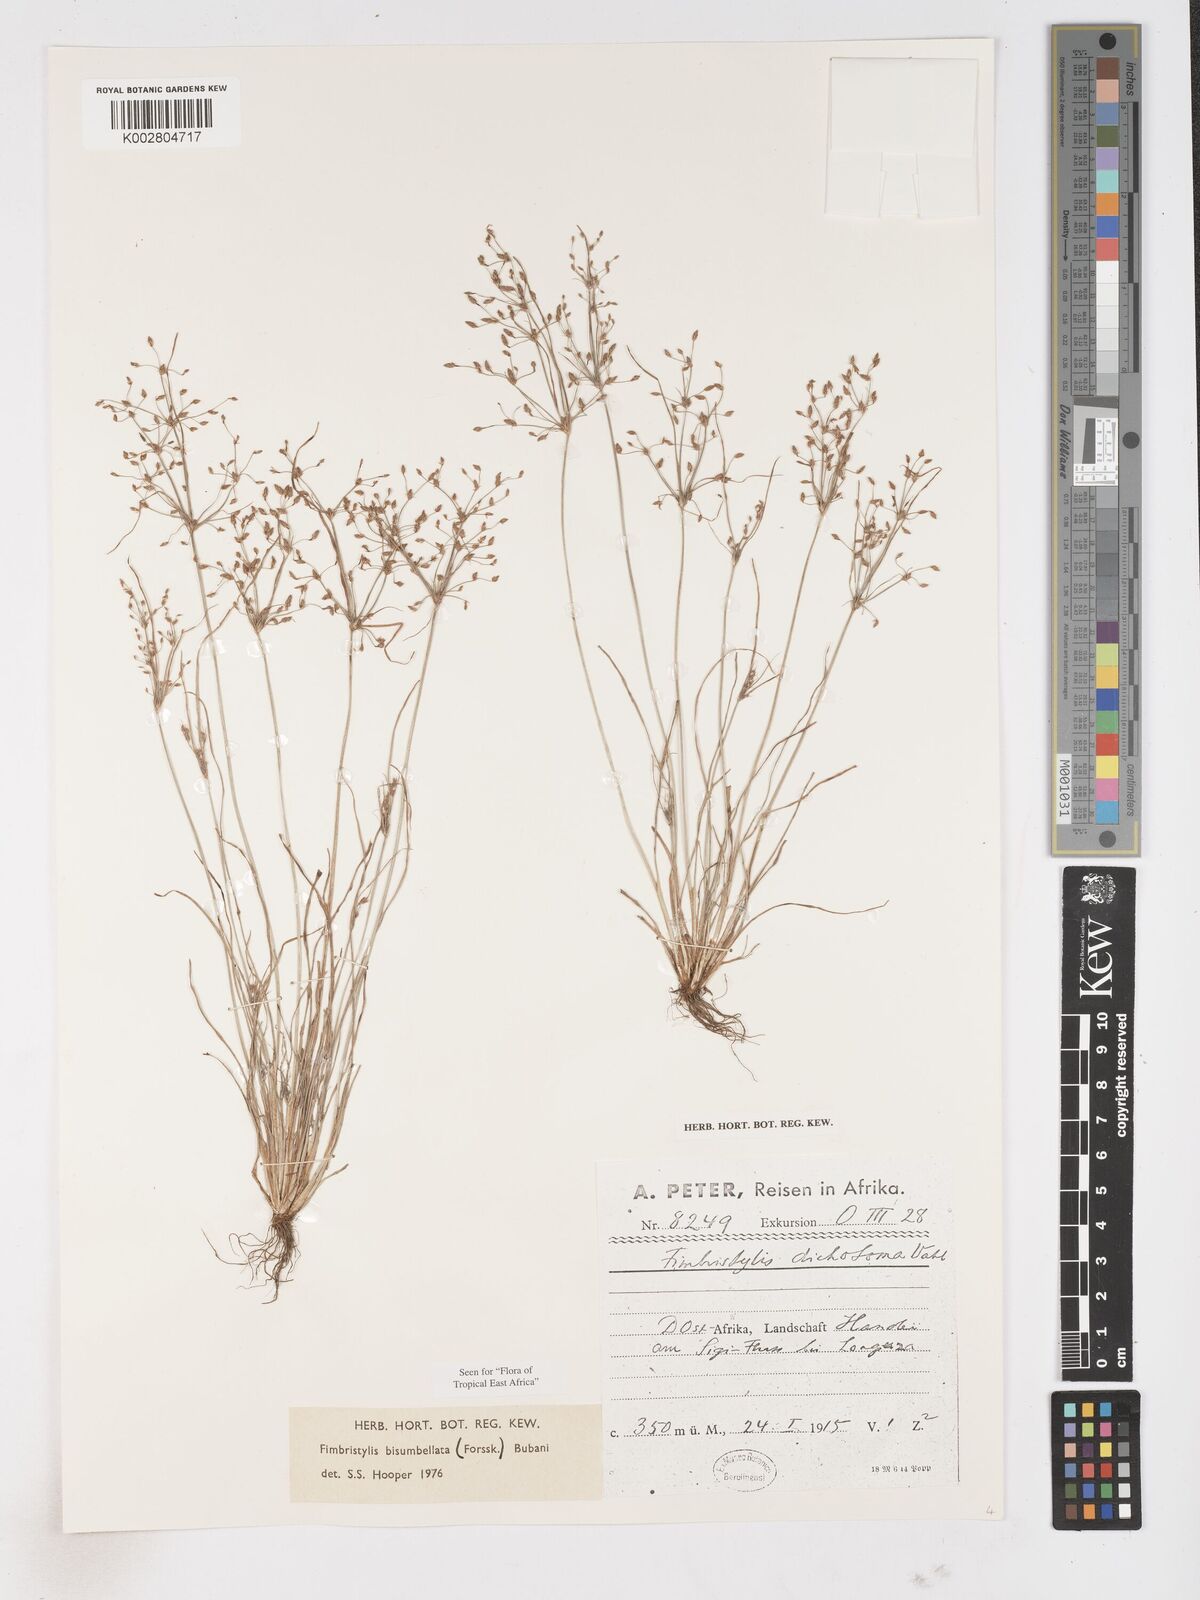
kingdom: Plantae
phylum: Tracheophyta
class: Liliopsida
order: Poales
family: Cyperaceae
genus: Fimbristylis
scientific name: Fimbristylis bisumbellata
